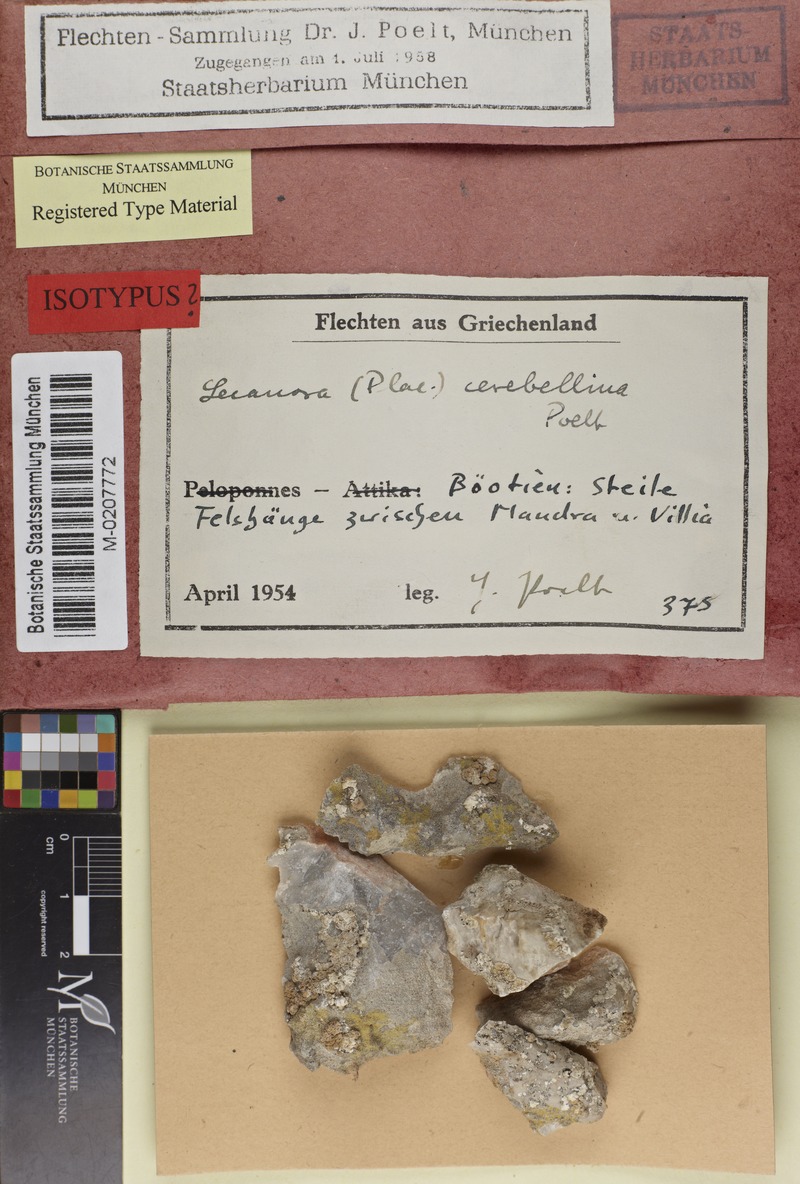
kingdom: Fungi
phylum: Ascomycota
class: Lecanoromycetes
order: Lecanorales
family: Lecanoraceae
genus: Lecanora
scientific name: Lecanora
